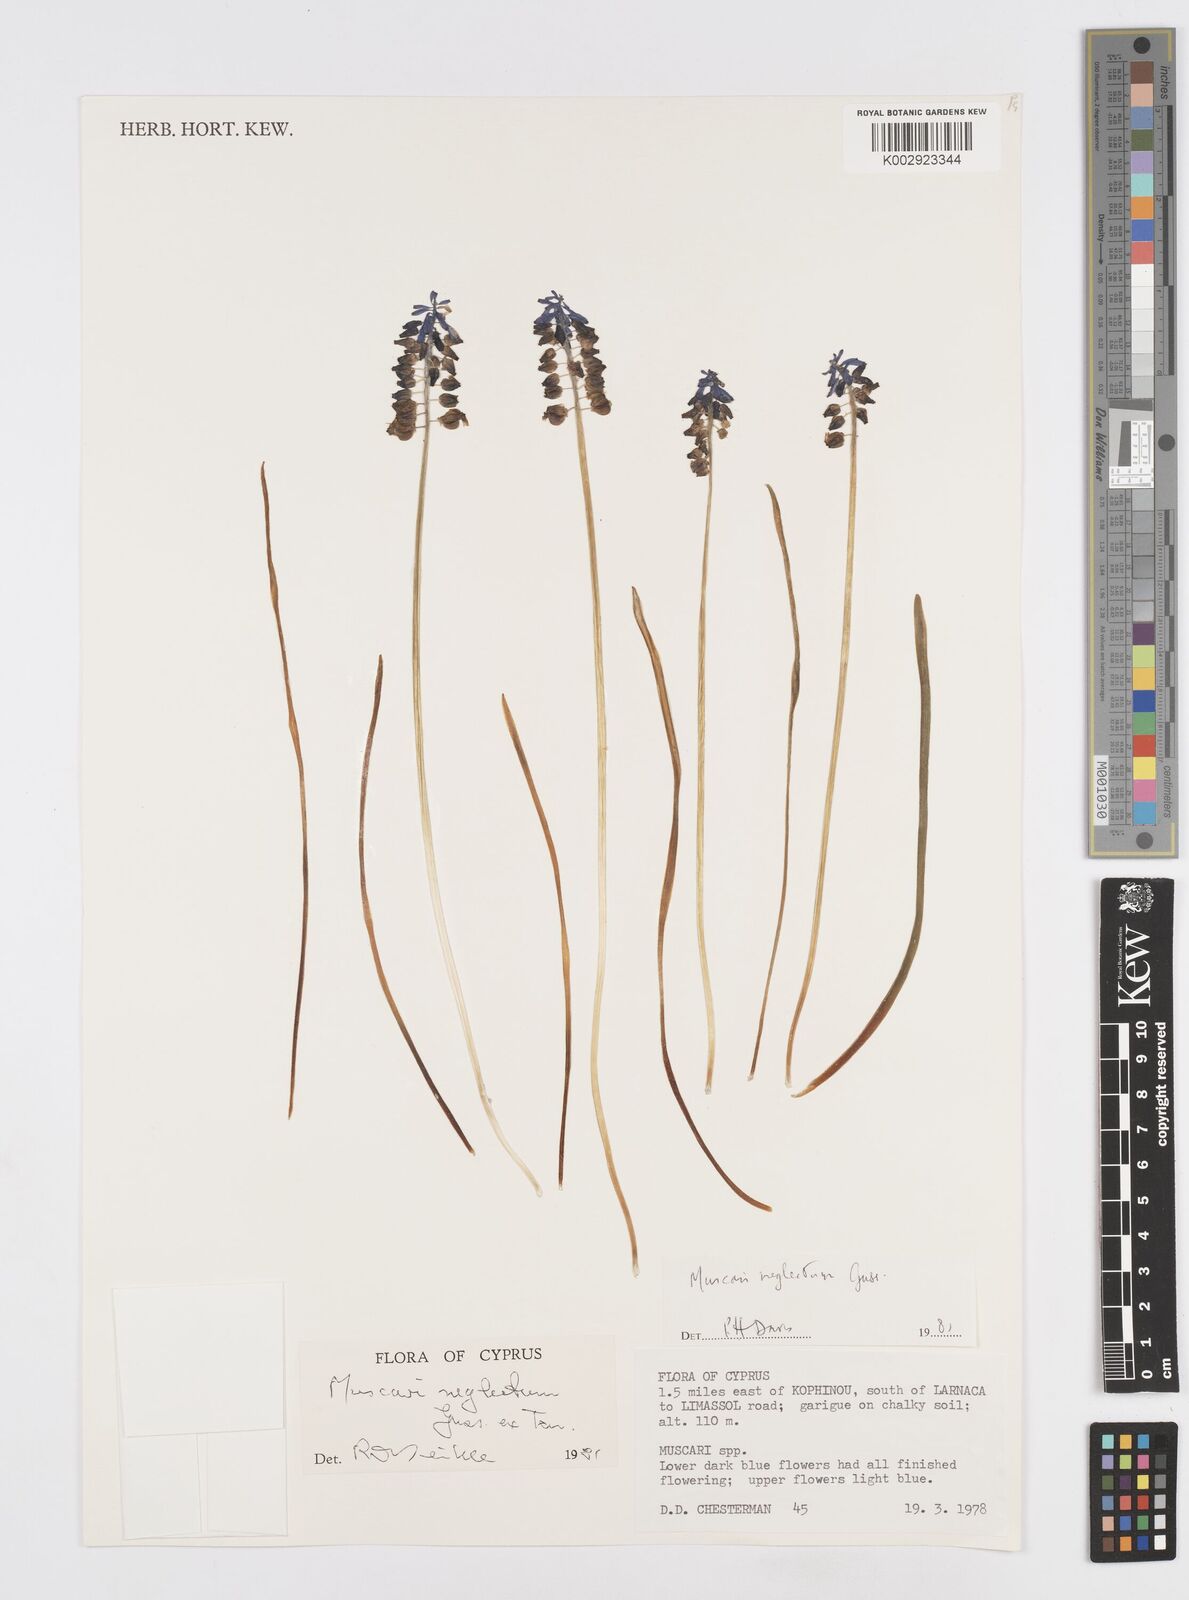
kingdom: Plantae
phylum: Tracheophyta
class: Liliopsida
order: Asparagales
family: Asparagaceae
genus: Muscari
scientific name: Muscari neglectum
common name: Grape-hyacinth
